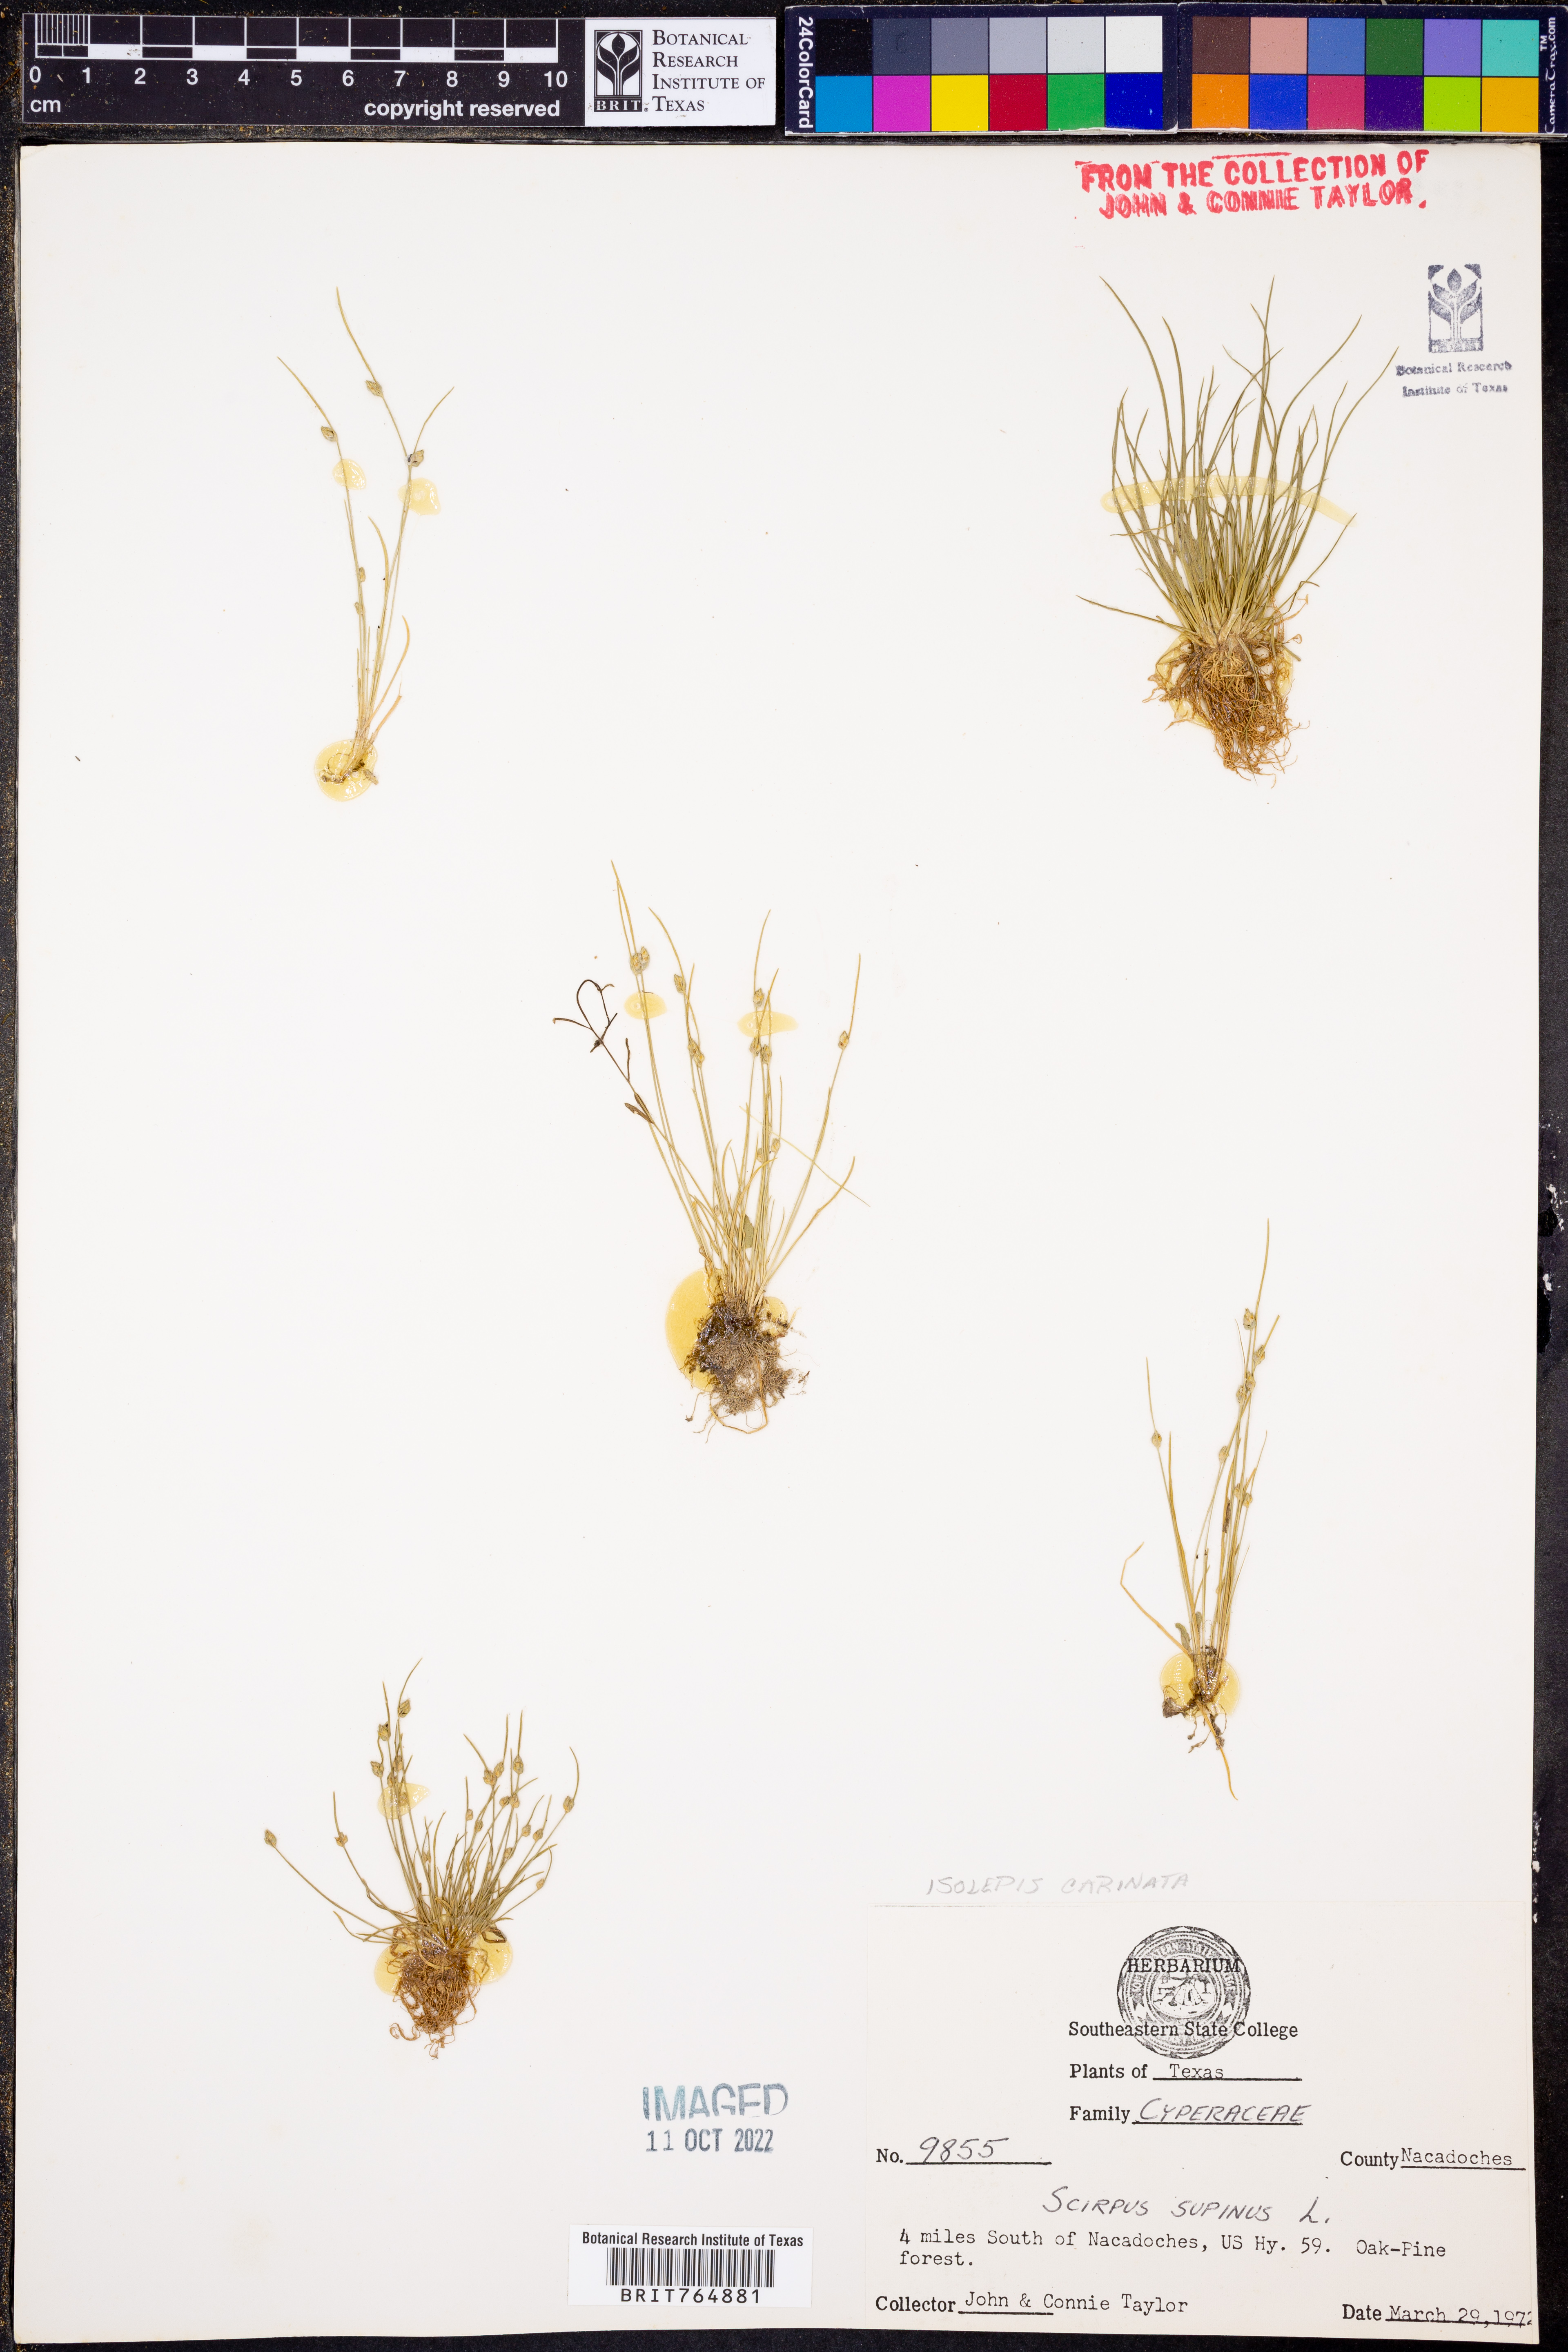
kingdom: Plantae
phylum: Tracheophyta
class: Liliopsida
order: Poales
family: Cyperaceae
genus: Isolepis
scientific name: Isolepis carinata
